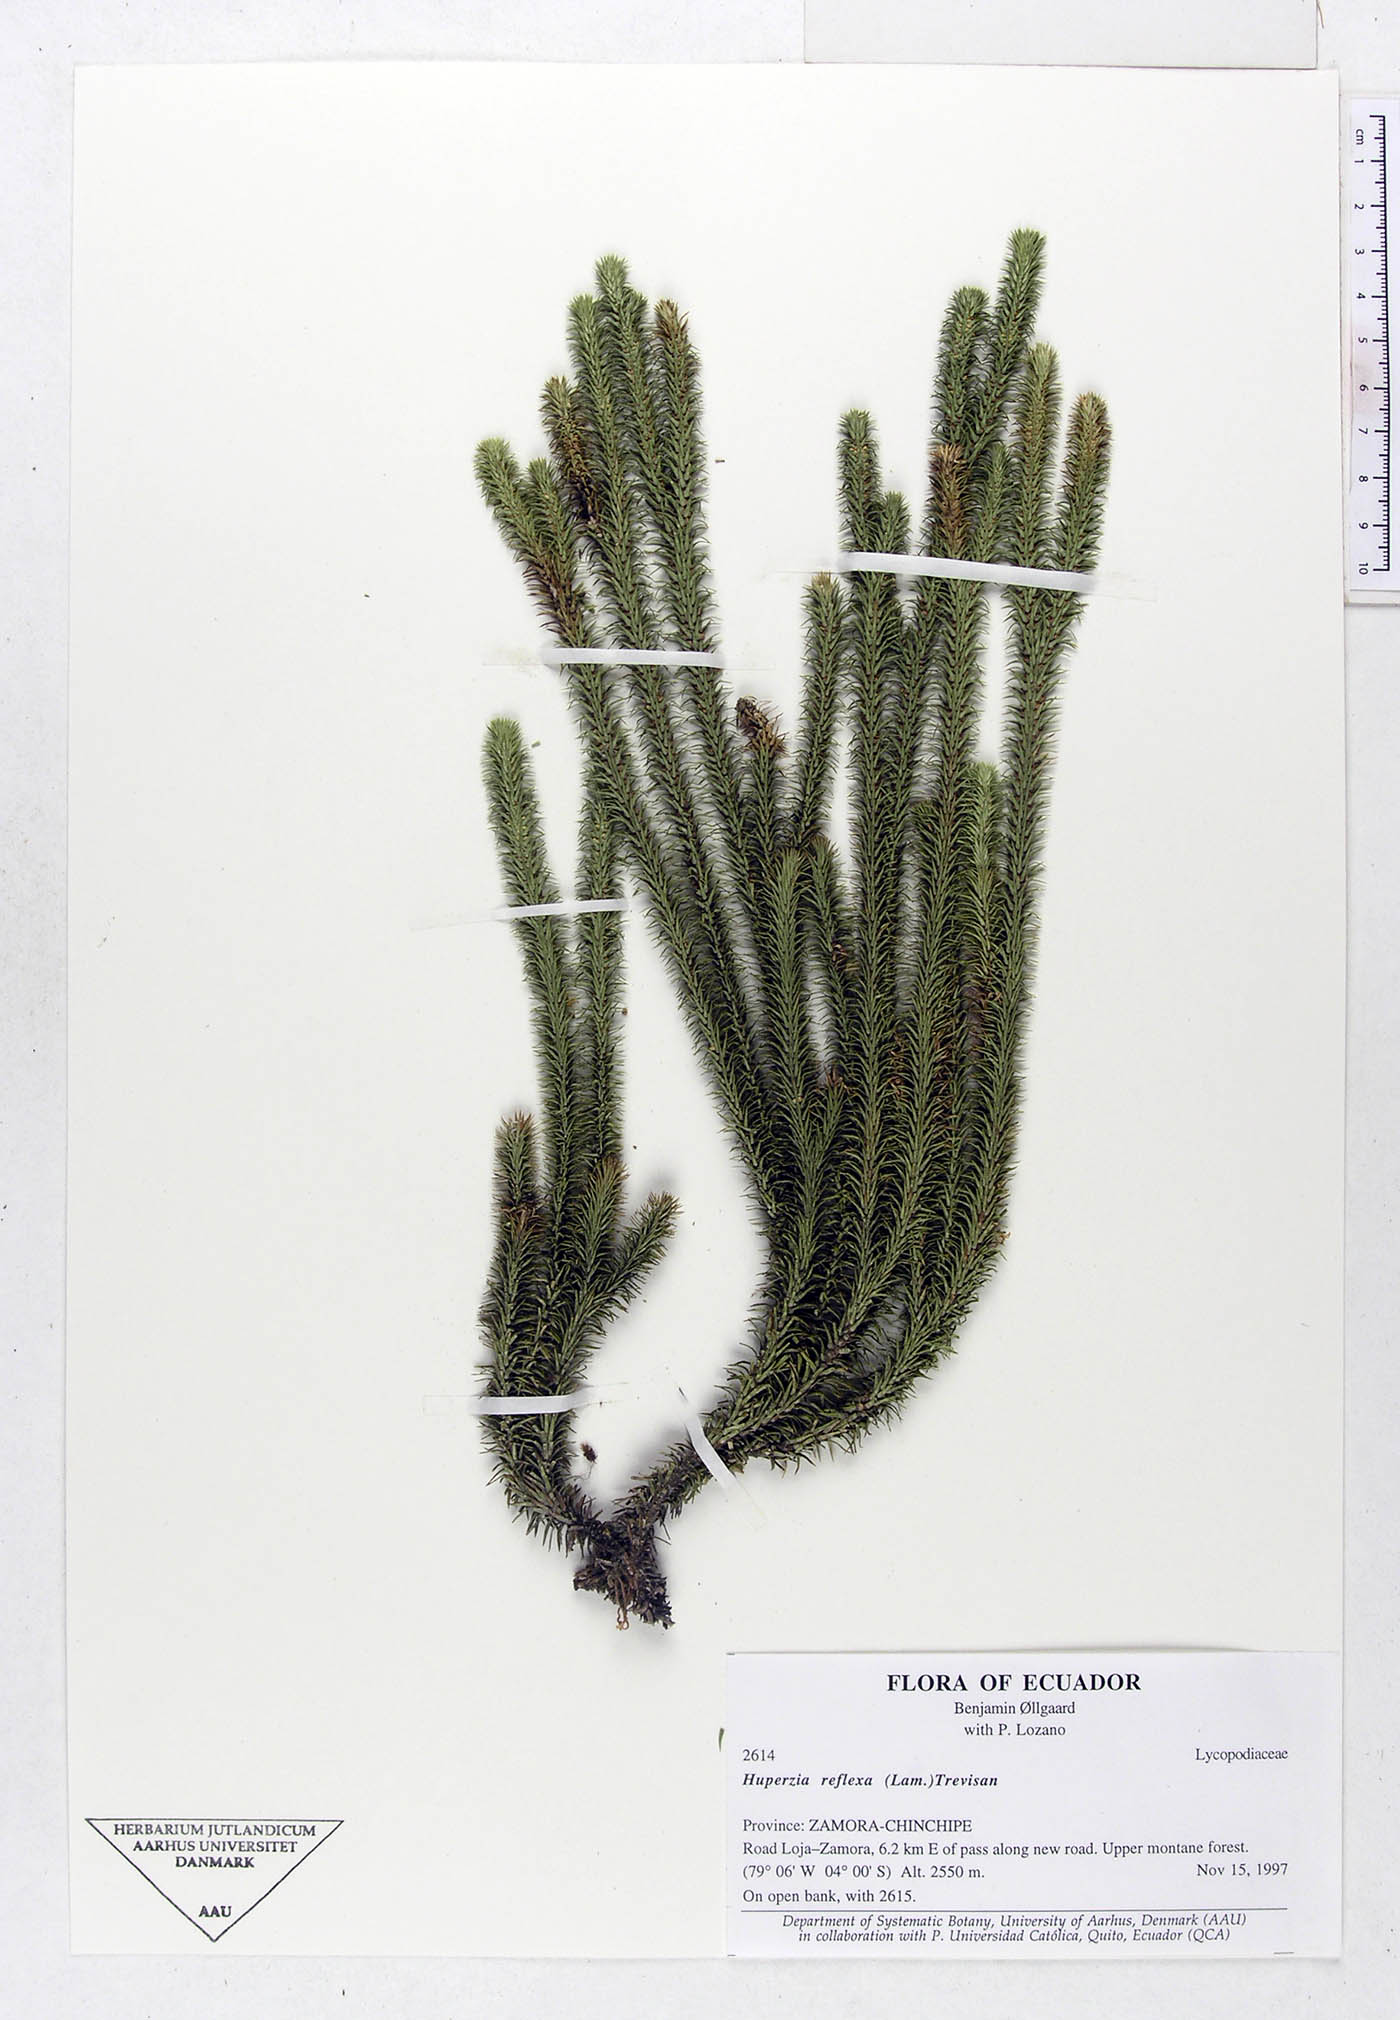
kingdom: Plantae
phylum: Tracheophyta
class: Lycopodiopsida
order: Lycopodiales
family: Lycopodiaceae
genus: Phlegmariurus
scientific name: Phlegmariurus reflexus
